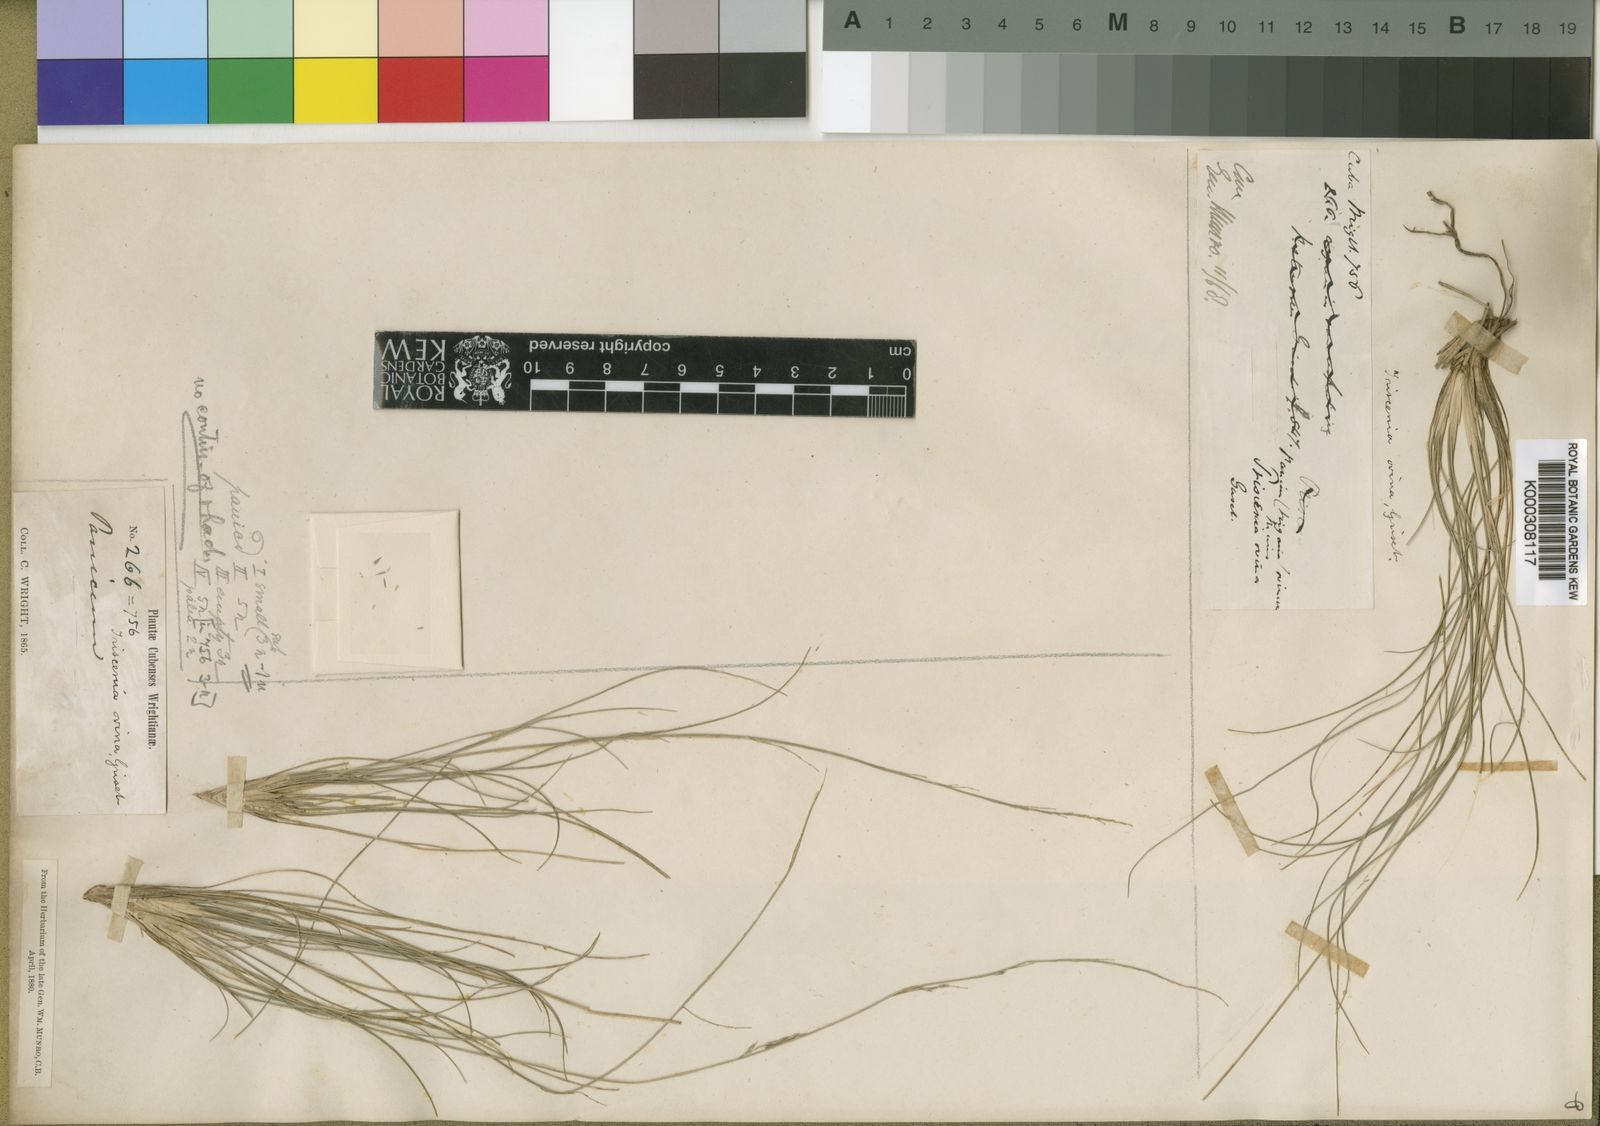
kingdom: Plantae
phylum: Tracheophyta
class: Liliopsida
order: Poales
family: Poaceae
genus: Triscenia
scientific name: Triscenia ovina
